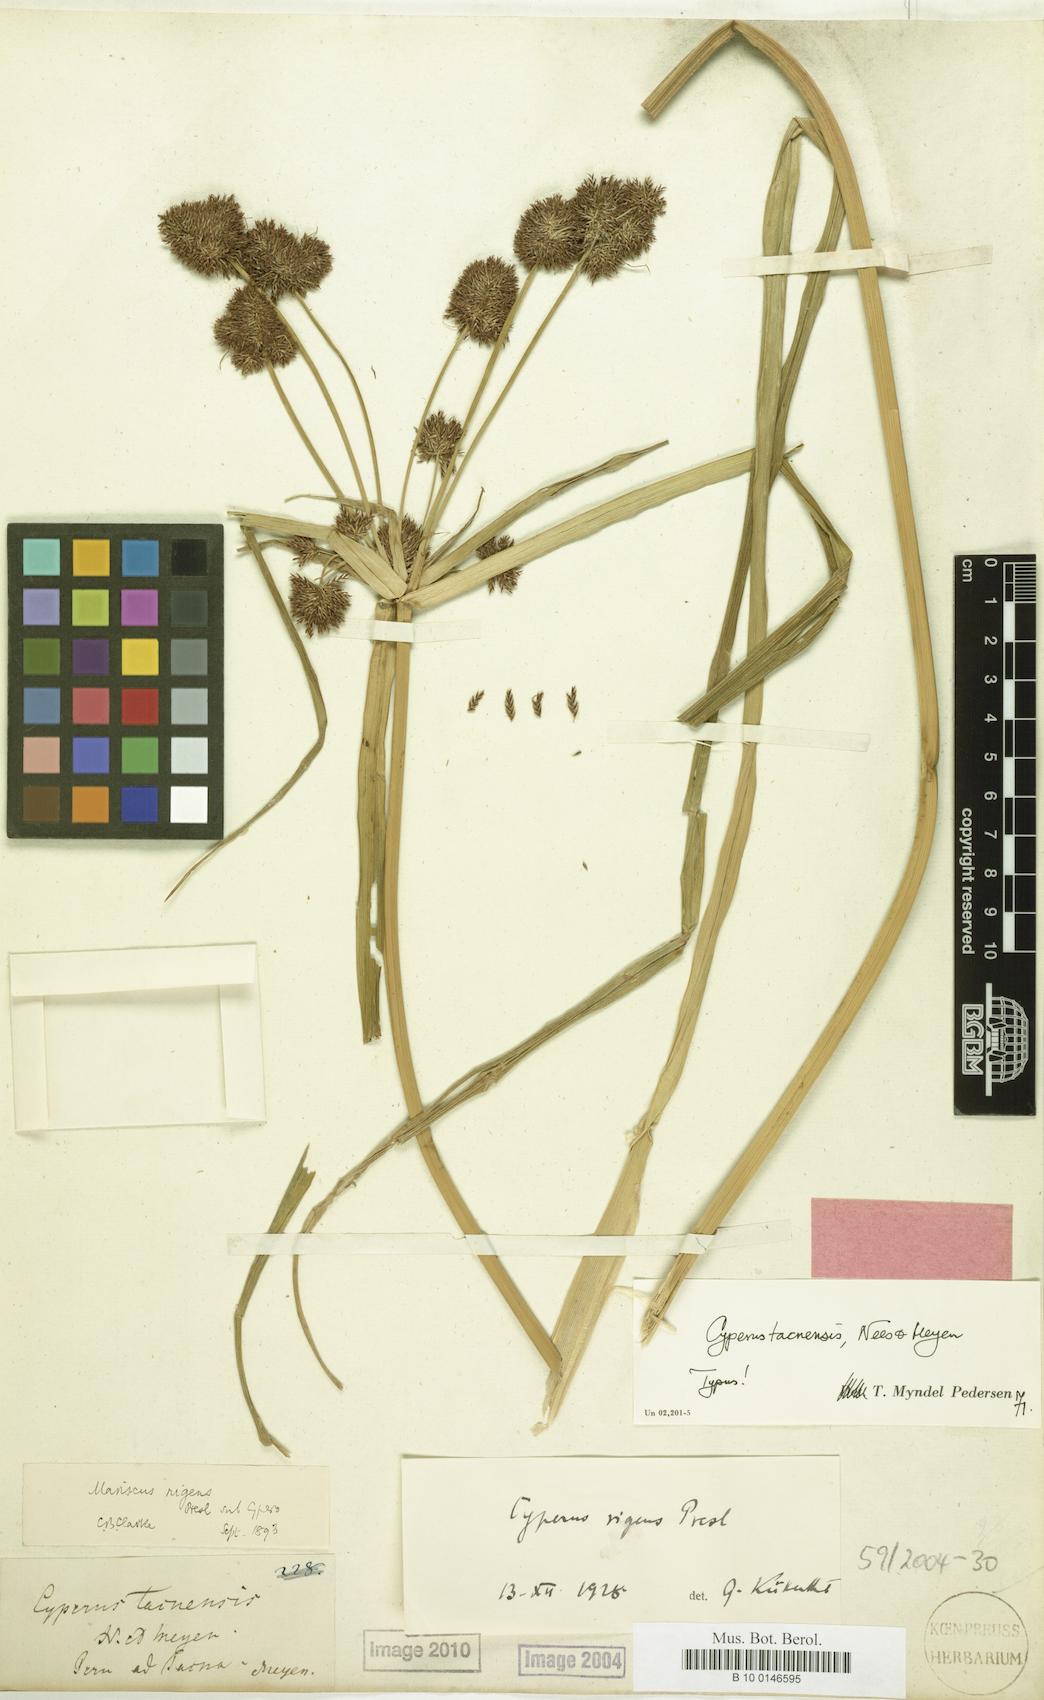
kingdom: Plantae
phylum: Tracheophyta
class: Liliopsida
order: Poales
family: Cyperaceae
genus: Cyperus
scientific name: Cyperus tacnensis
